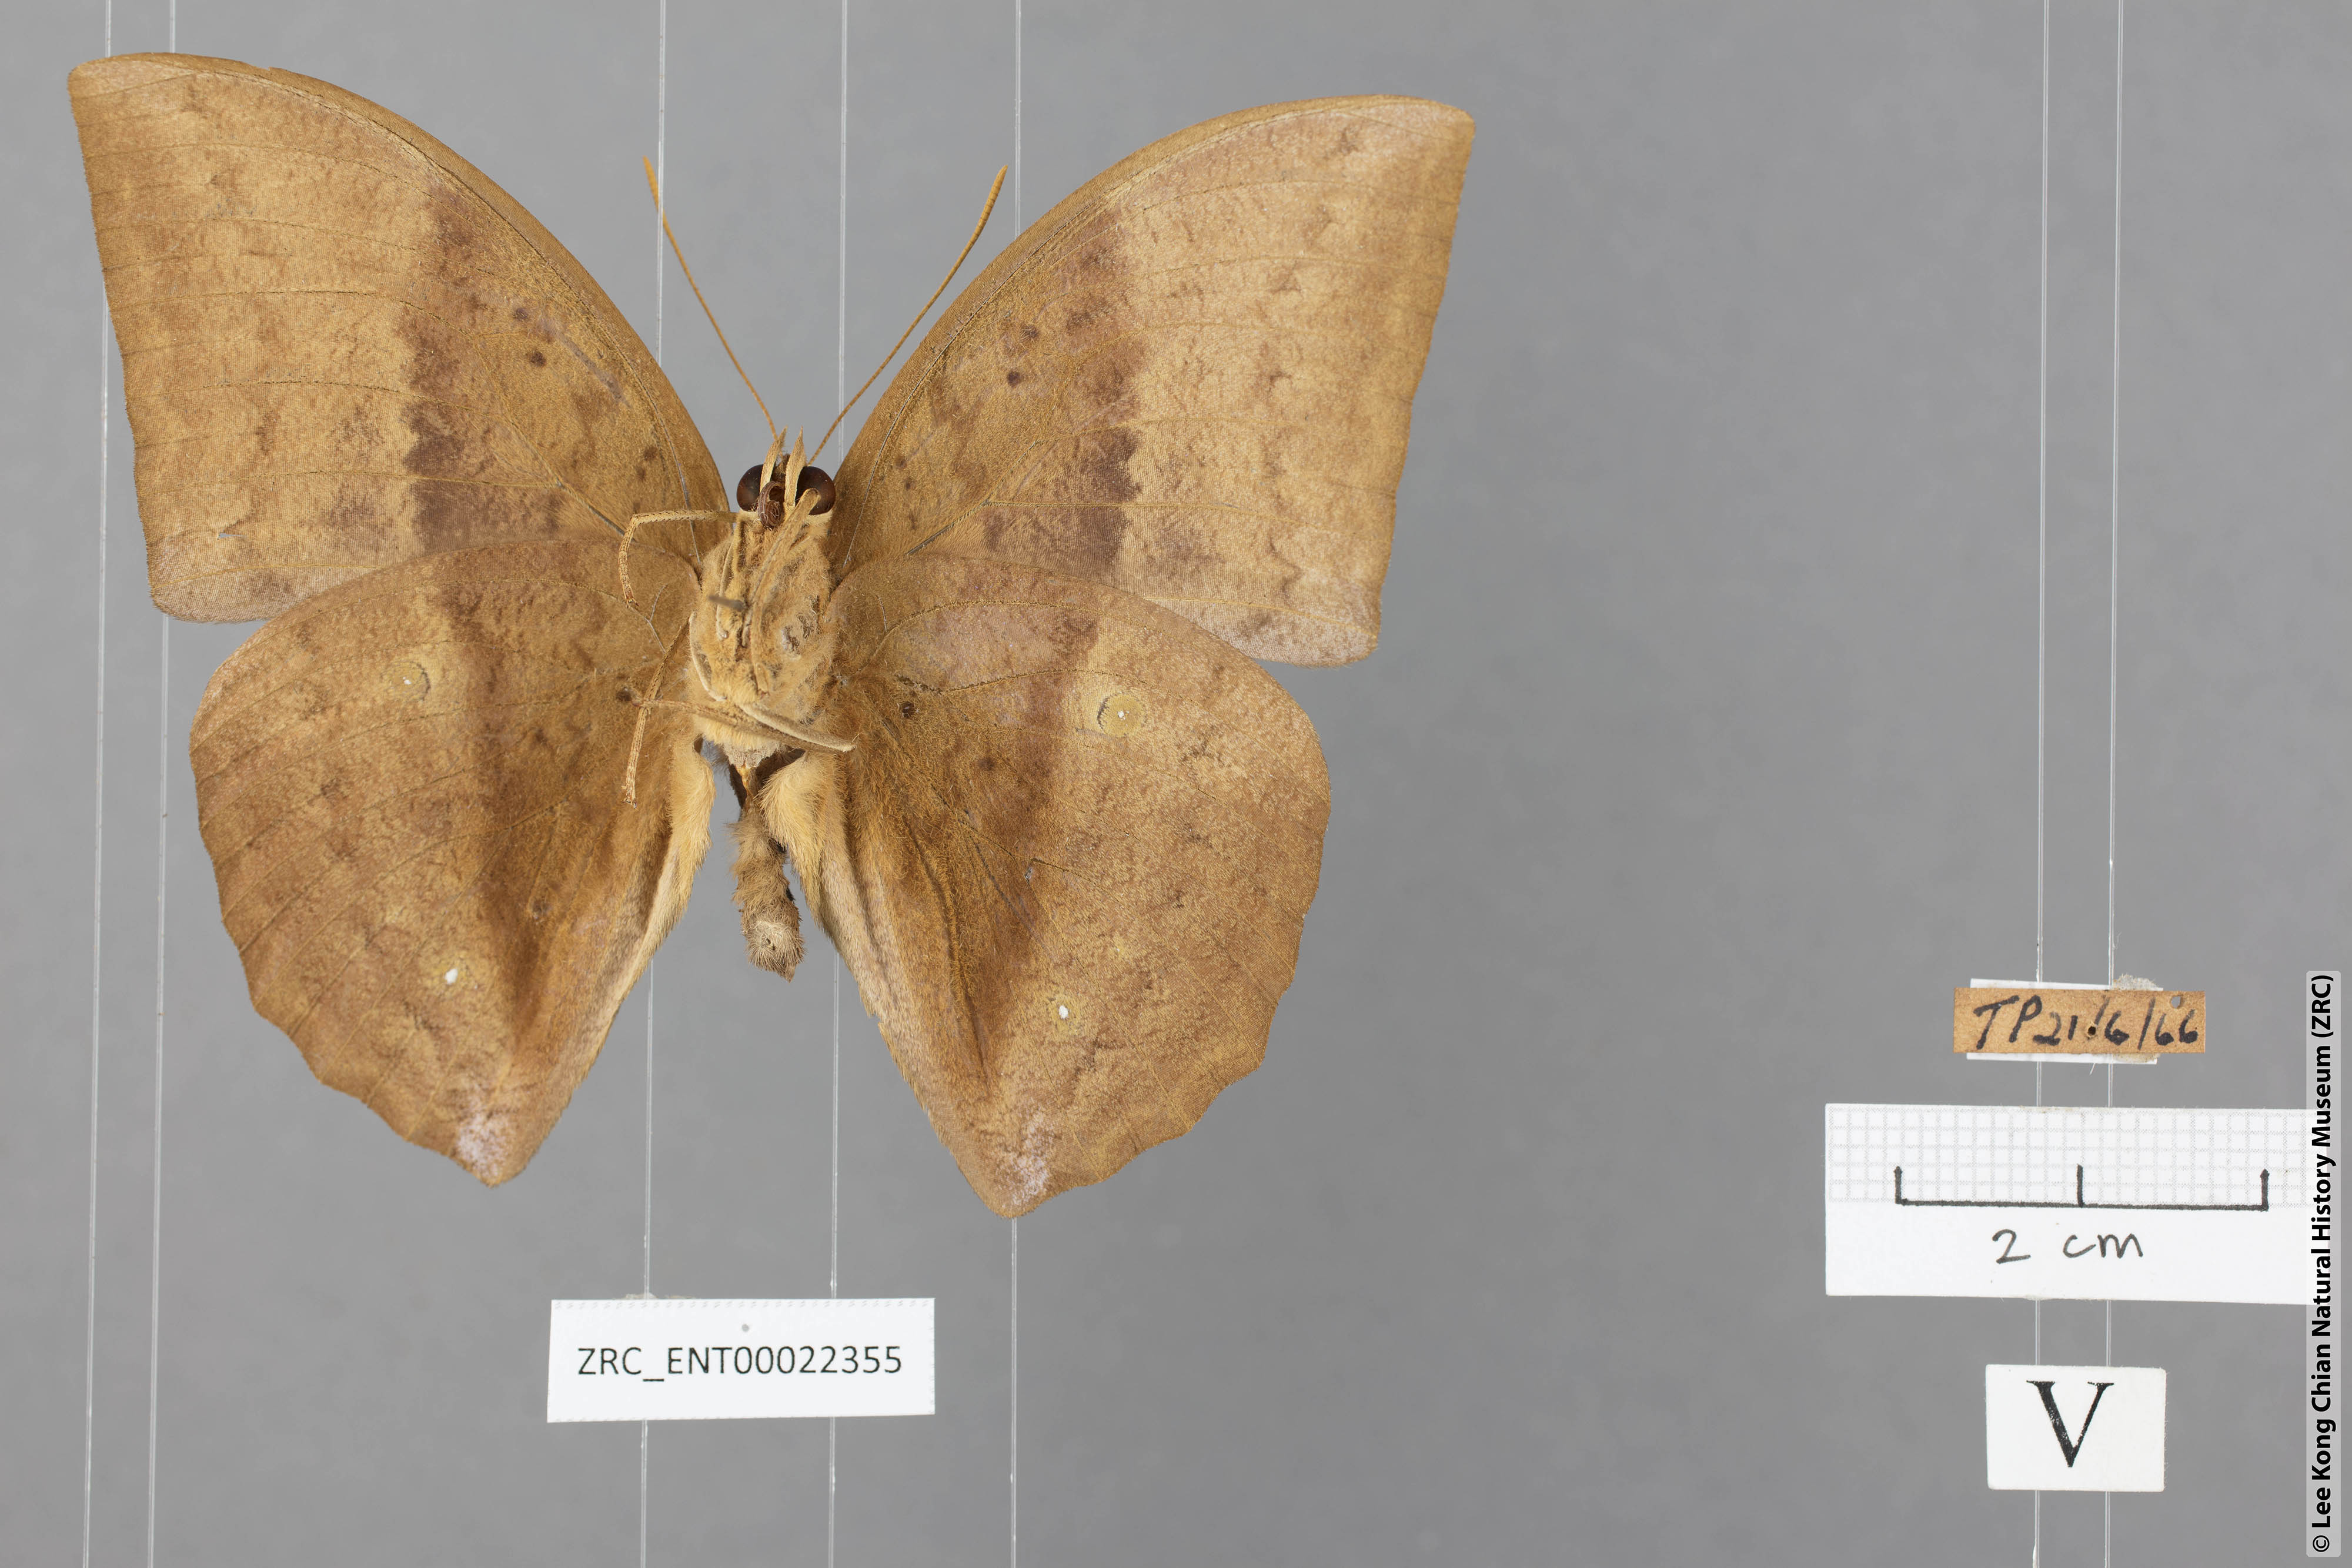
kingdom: Animalia
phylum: Arthropoda
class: Insecta
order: Lepidoptera
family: Nymphalidae
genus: Discophora
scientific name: Discophora sondaica
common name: Common duffer
